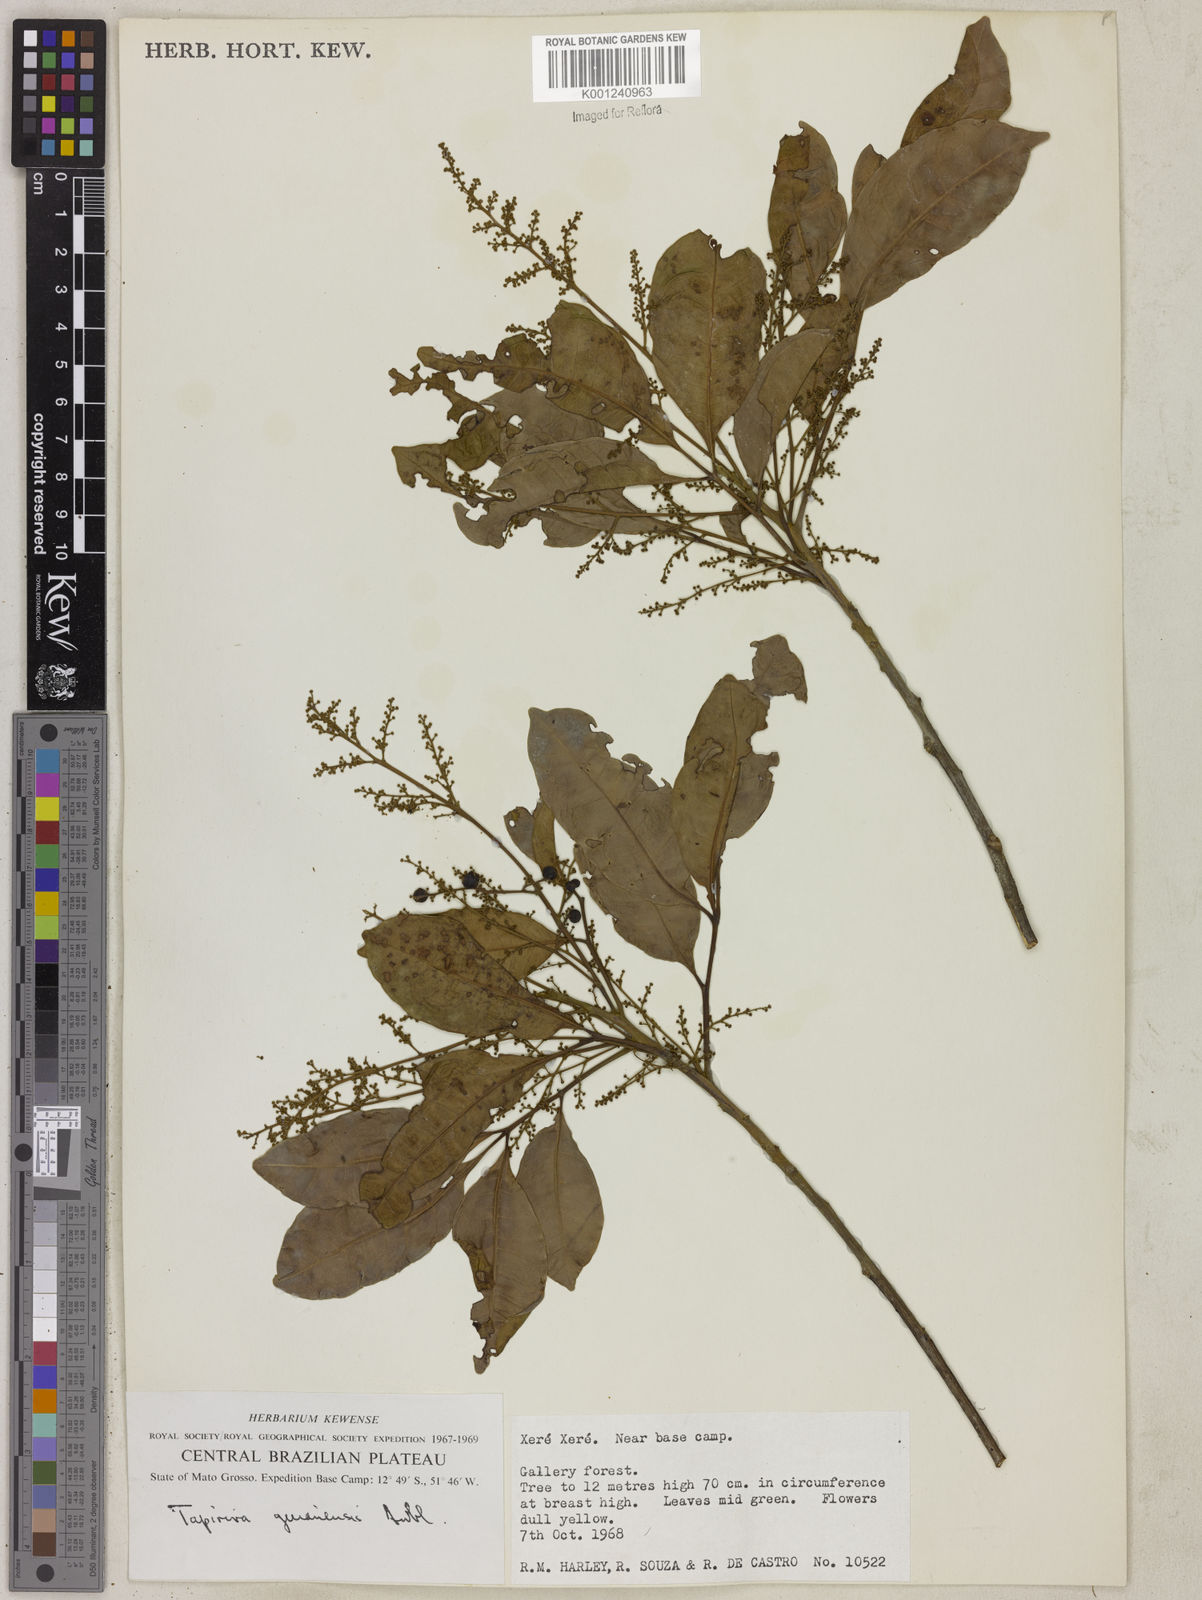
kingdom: Plantae
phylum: Tracheophyta
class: Magnoliopsida
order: Sapindales
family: Anacardiaceae
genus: Tapirira
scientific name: Tapirira guianensis
